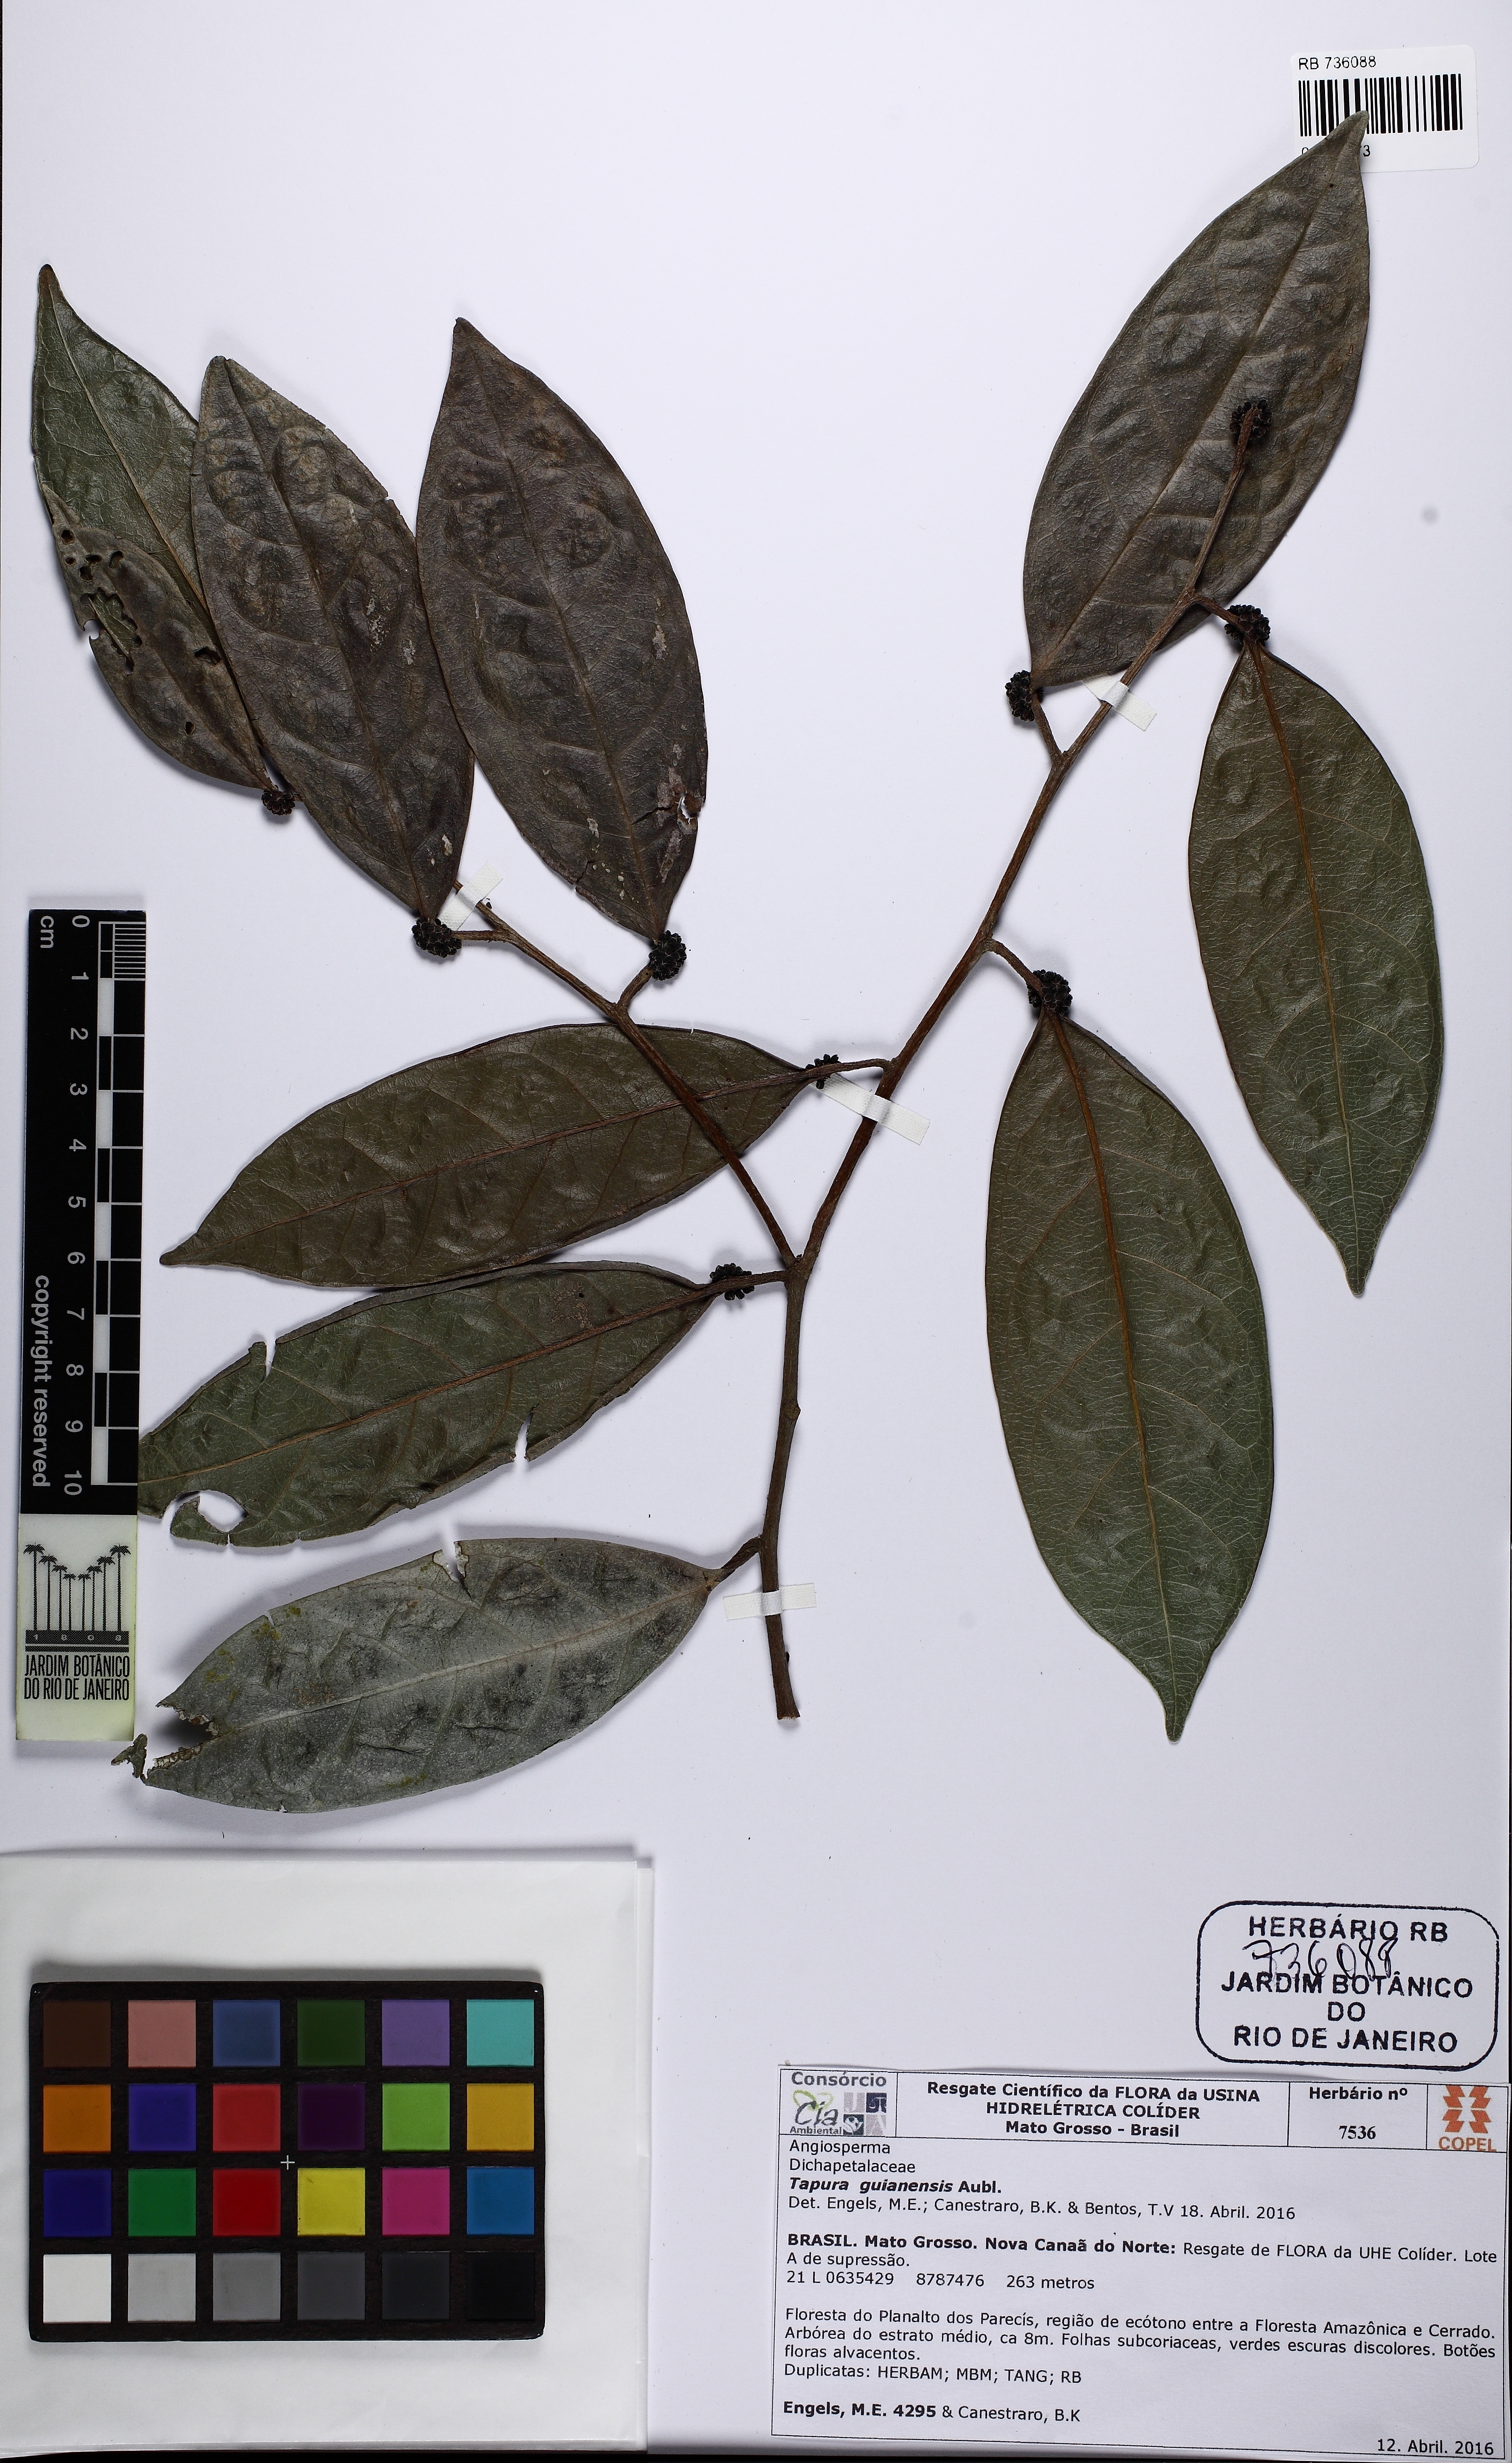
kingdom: Plantae
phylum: Tracheophyta
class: Magnoliopsida
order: Malpighiales
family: Dichapetalaceae
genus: Tapura
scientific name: Tapura guianensis
